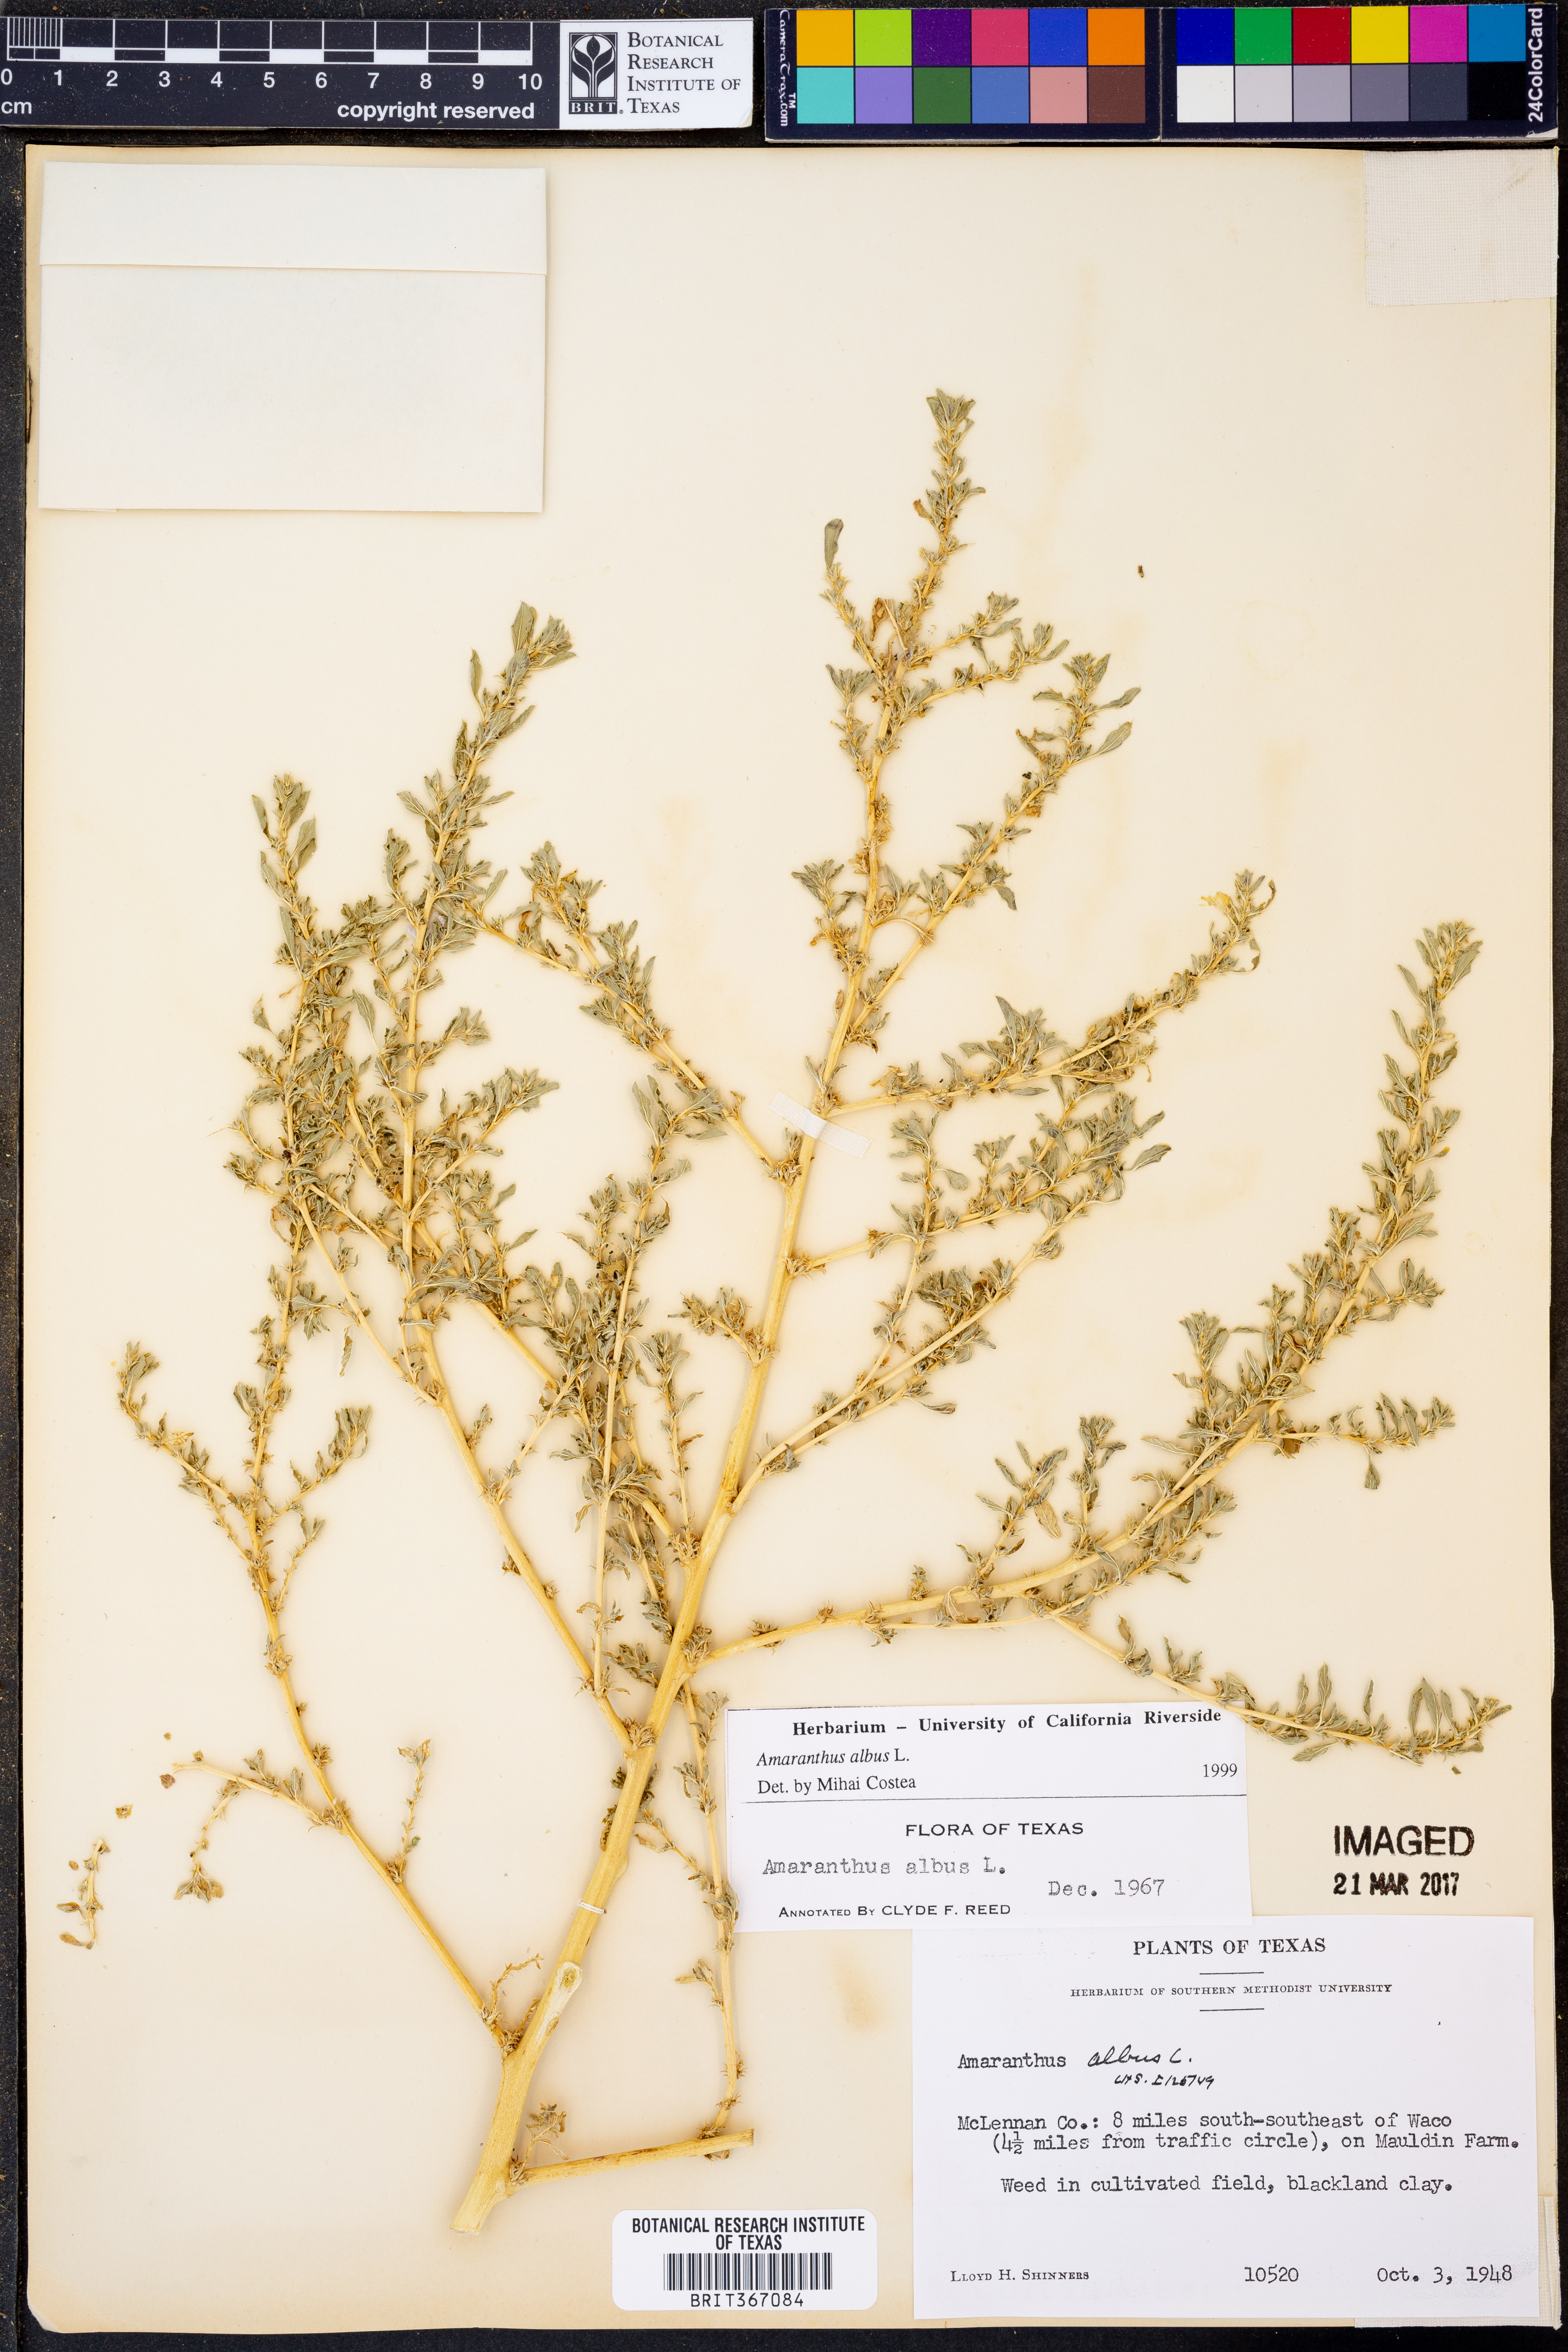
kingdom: Plantae
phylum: Tracheophyta
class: Magnoliopsida
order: Caryophyllales
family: Amaranthaceae
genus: Amaranthus
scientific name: Amaranthus albus
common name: White pigweed
